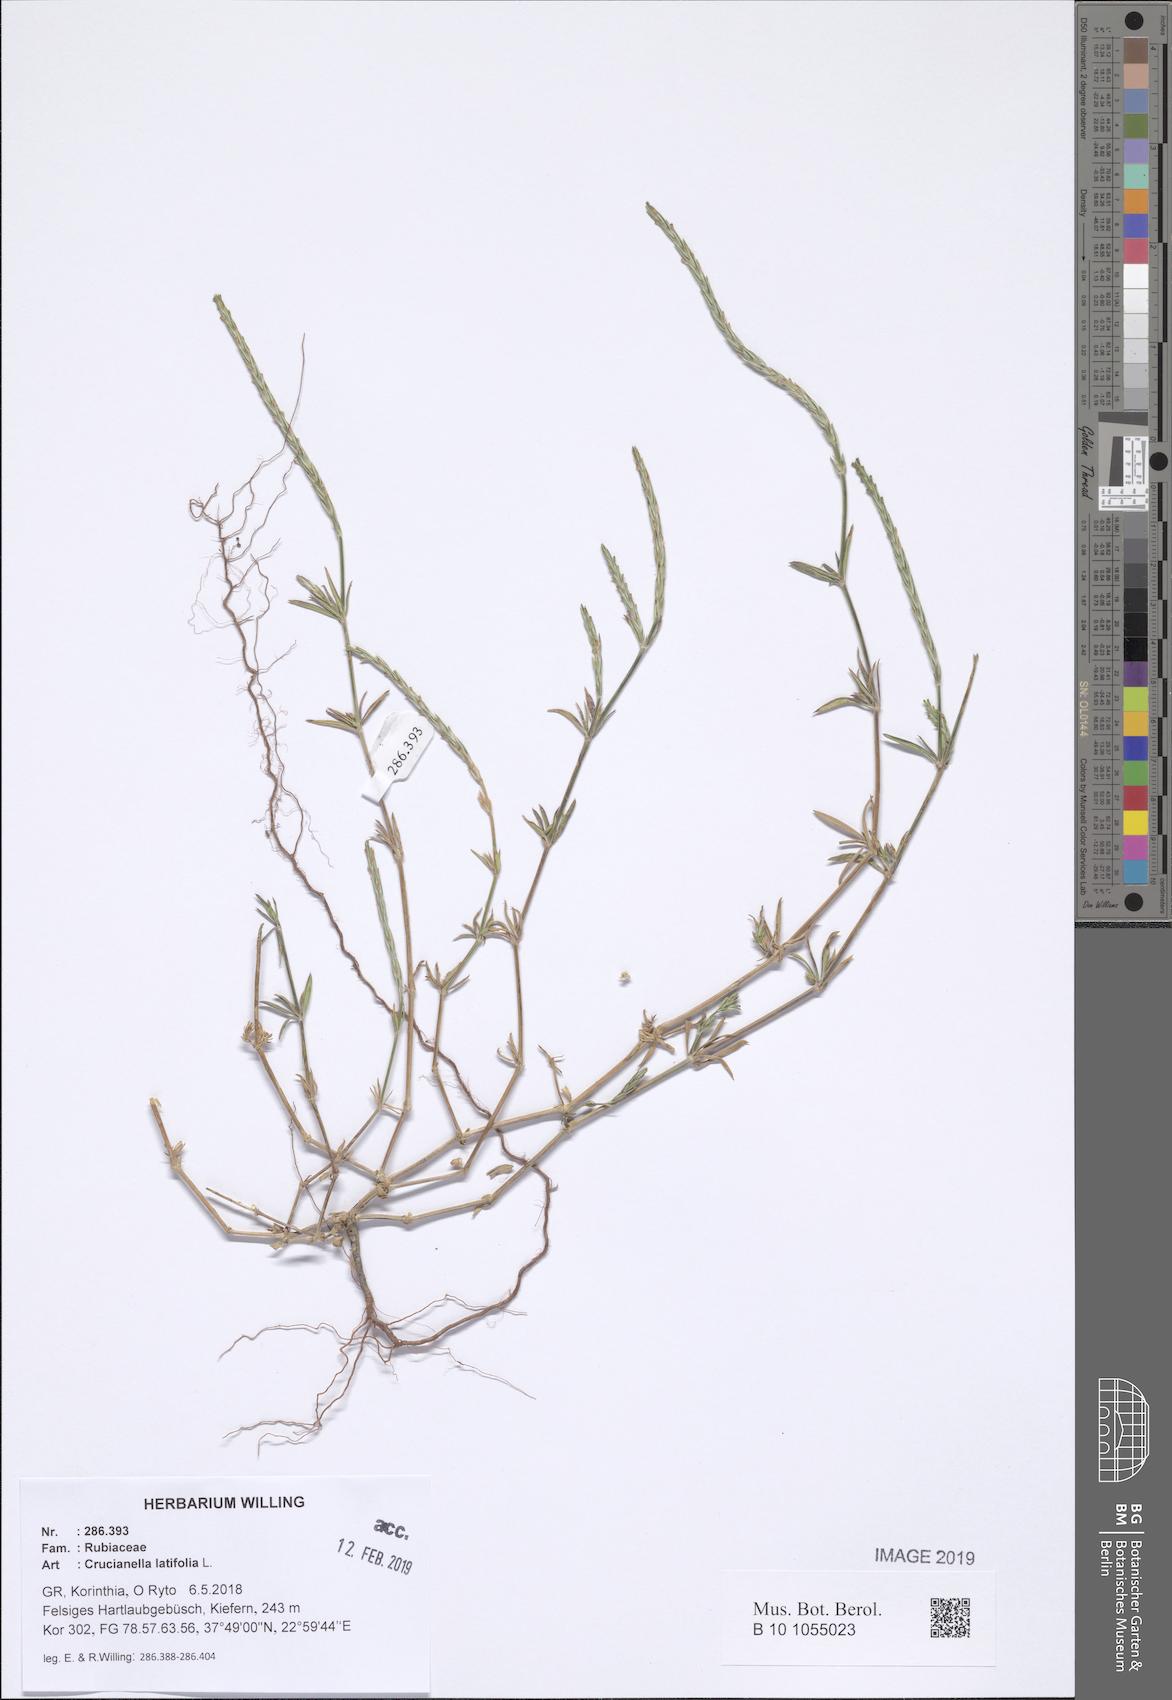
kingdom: Plantae
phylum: Tracheophyta
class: Magnoliopsida
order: Gentianales
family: Rubiaceae
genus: Crucianella
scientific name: Crucianella latifolia
